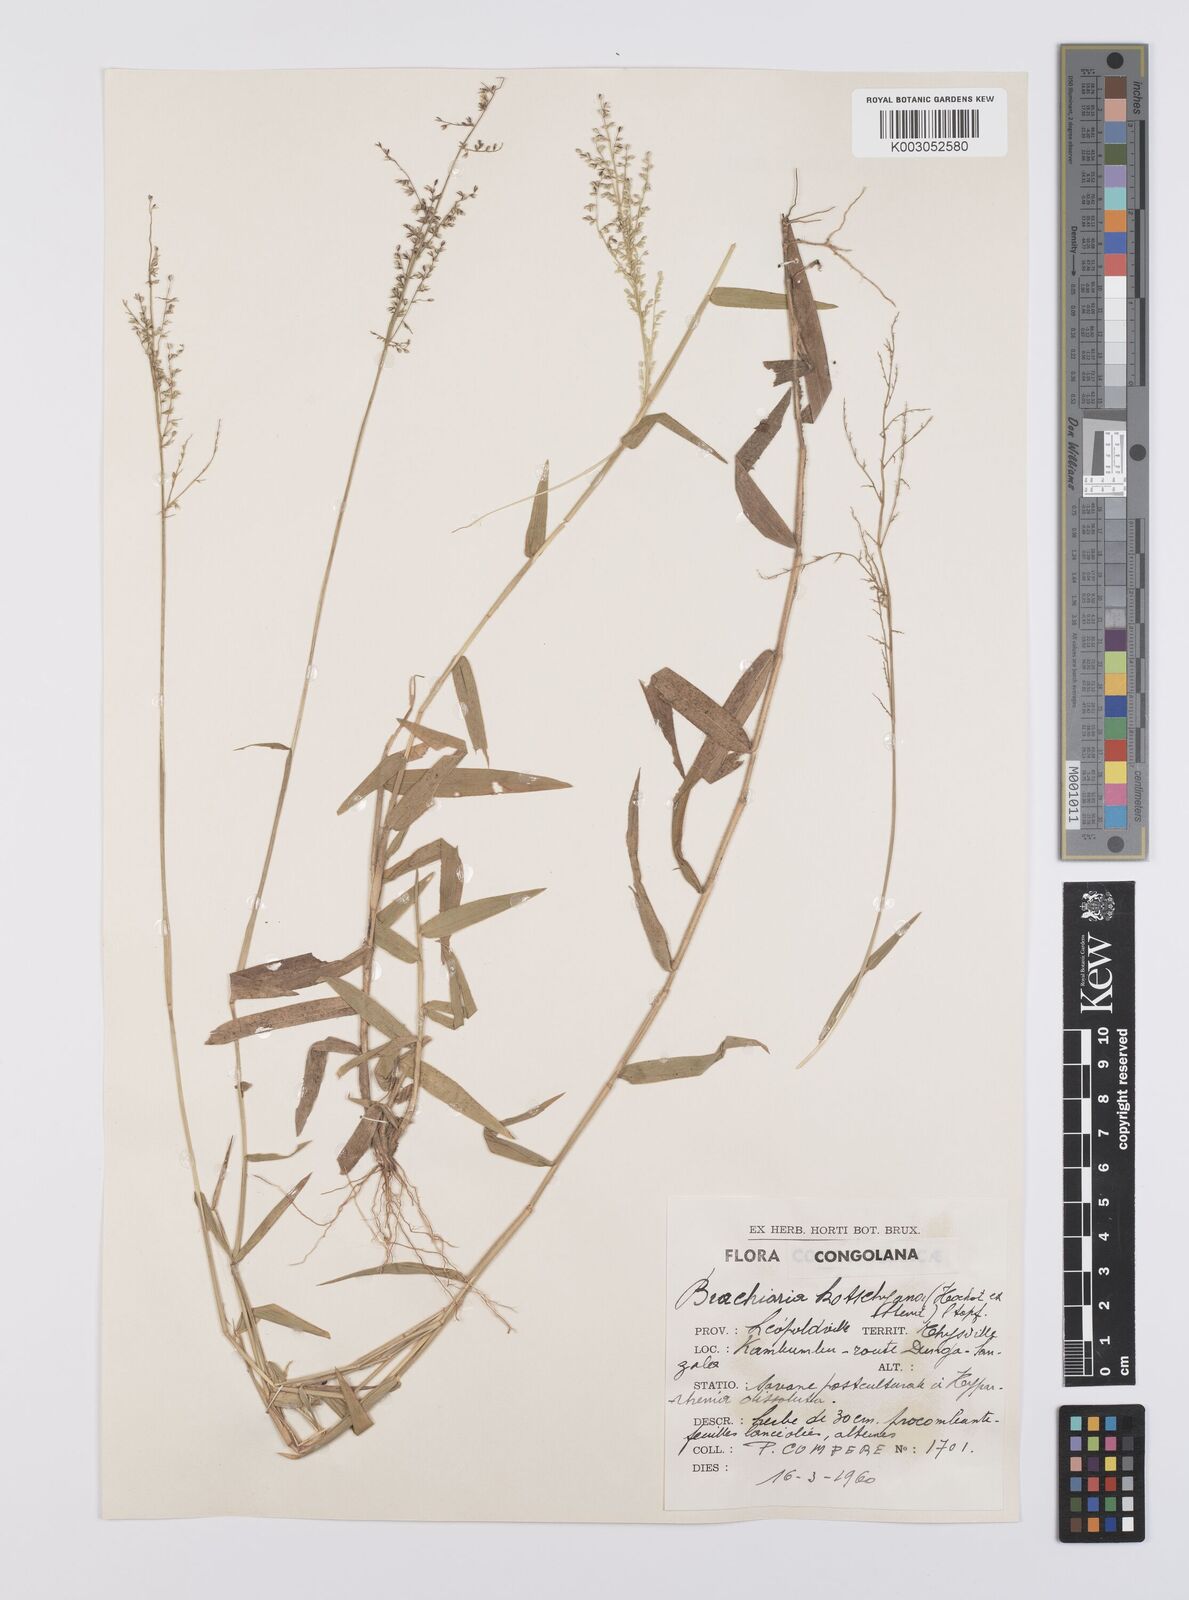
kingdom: Plantae
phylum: Tracheophyta
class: Liliopsida
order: Poales
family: Poaceae
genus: Urochloa
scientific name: Urochloa comata
